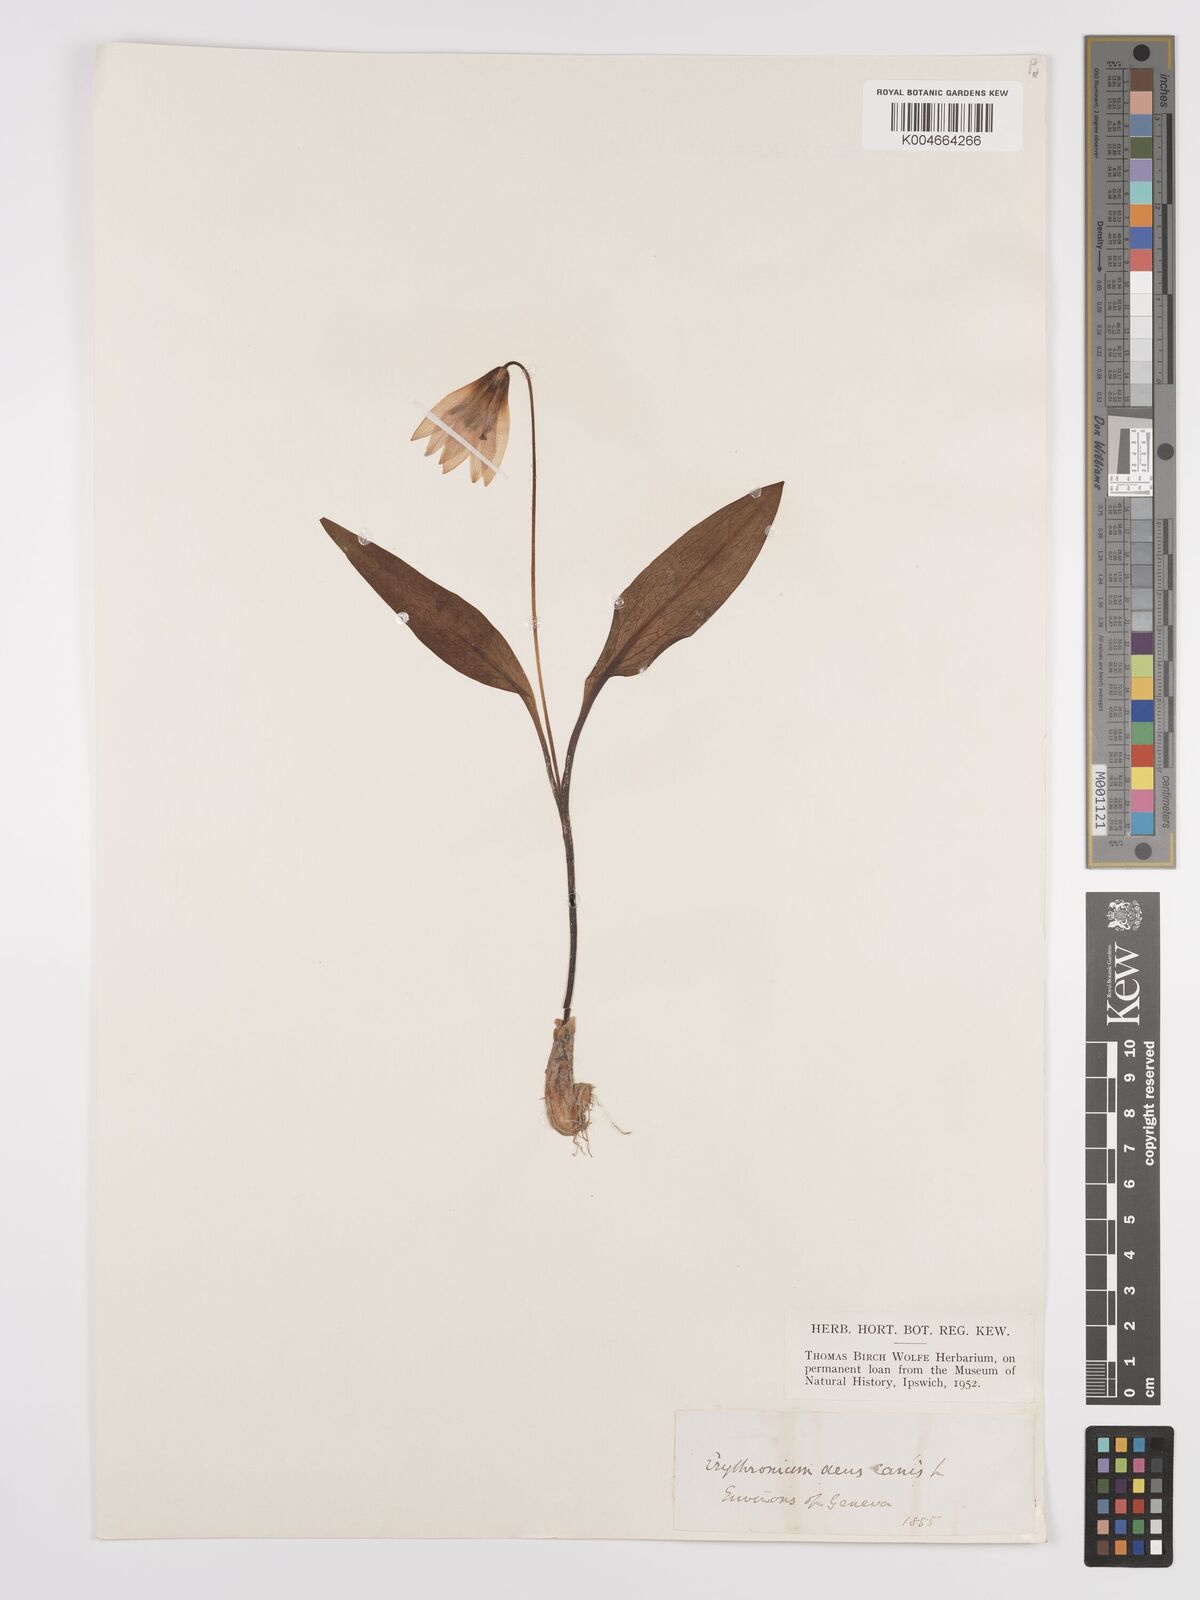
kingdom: Plantae
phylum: Tracheophyta
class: Liliopsida
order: Liliales
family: Liliaceae
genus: Erythronium
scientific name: Erythronium dens-canis
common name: Dog's-tooth-violet
